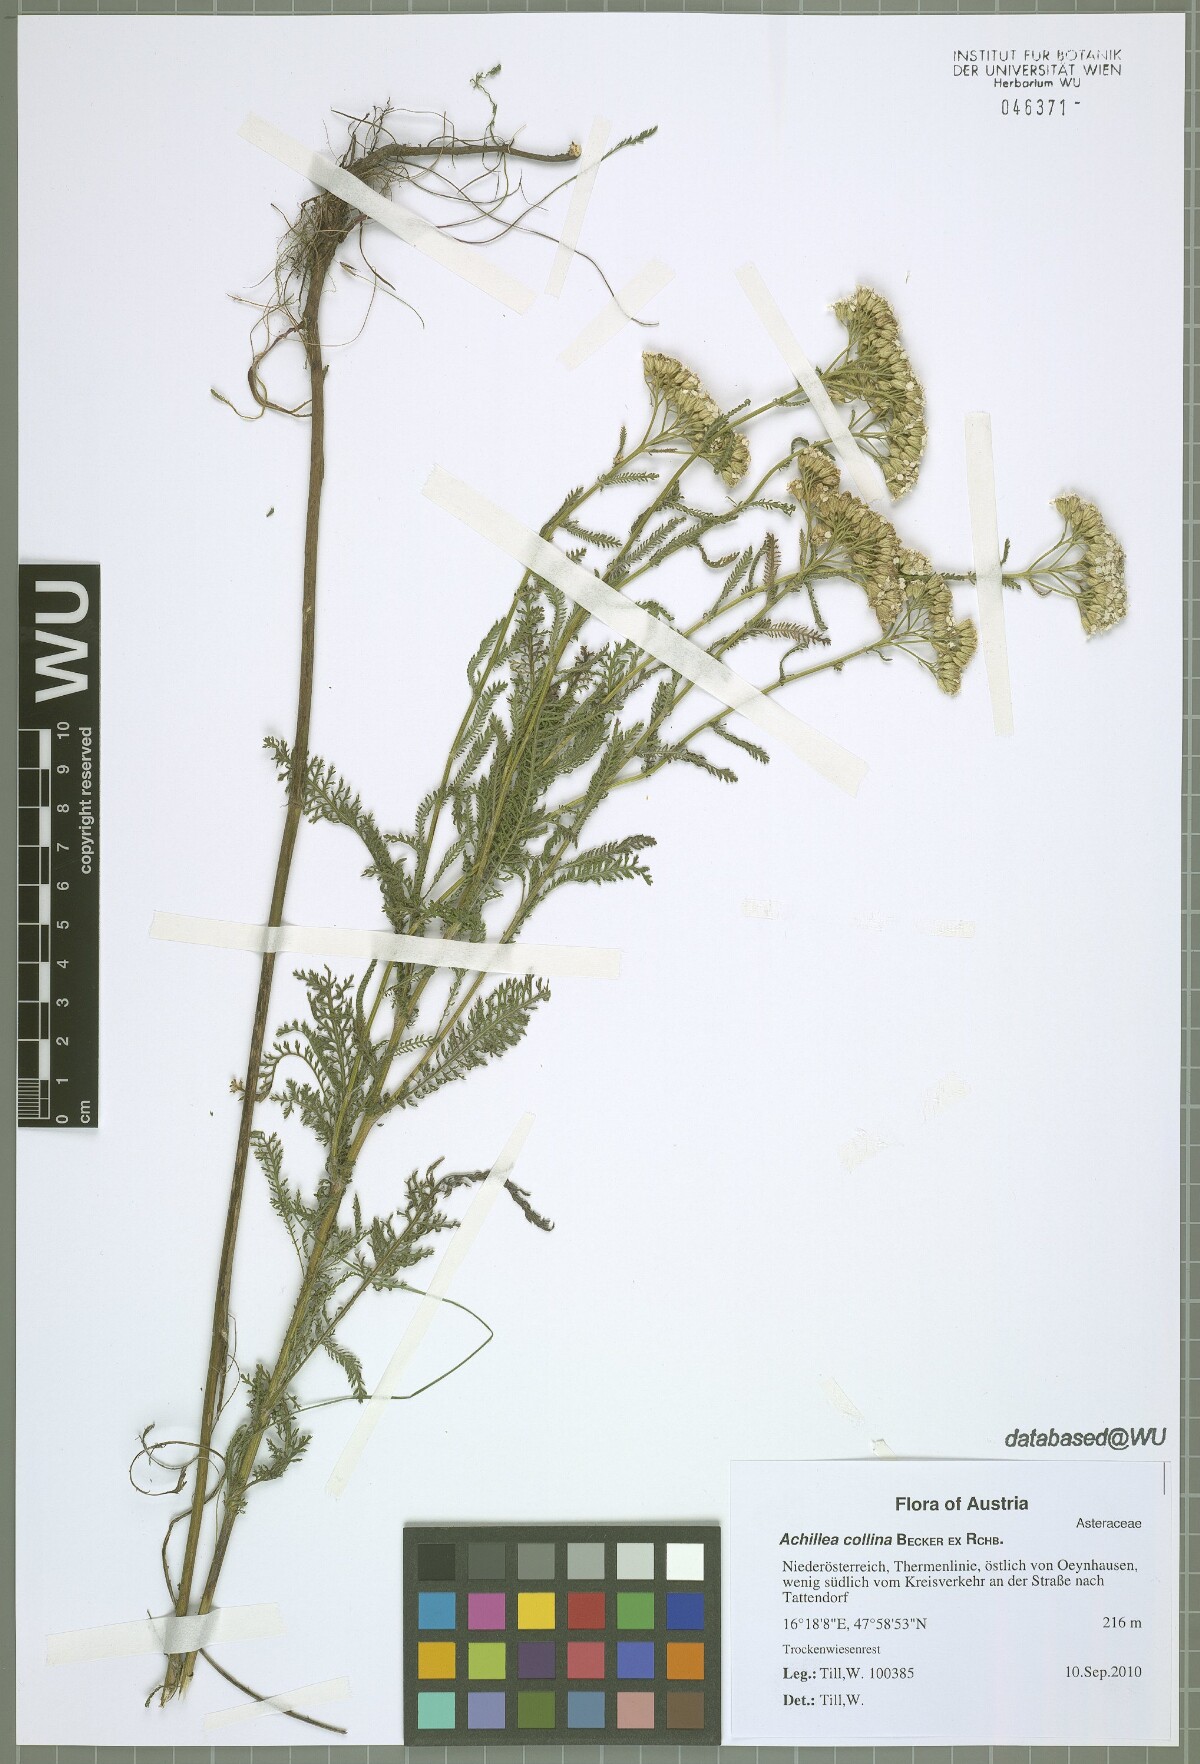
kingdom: Plantae
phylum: Tracheophyta
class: Magnoliopsida
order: Asterales
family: Asteraceae
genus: Achillea
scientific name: Achillea collina
